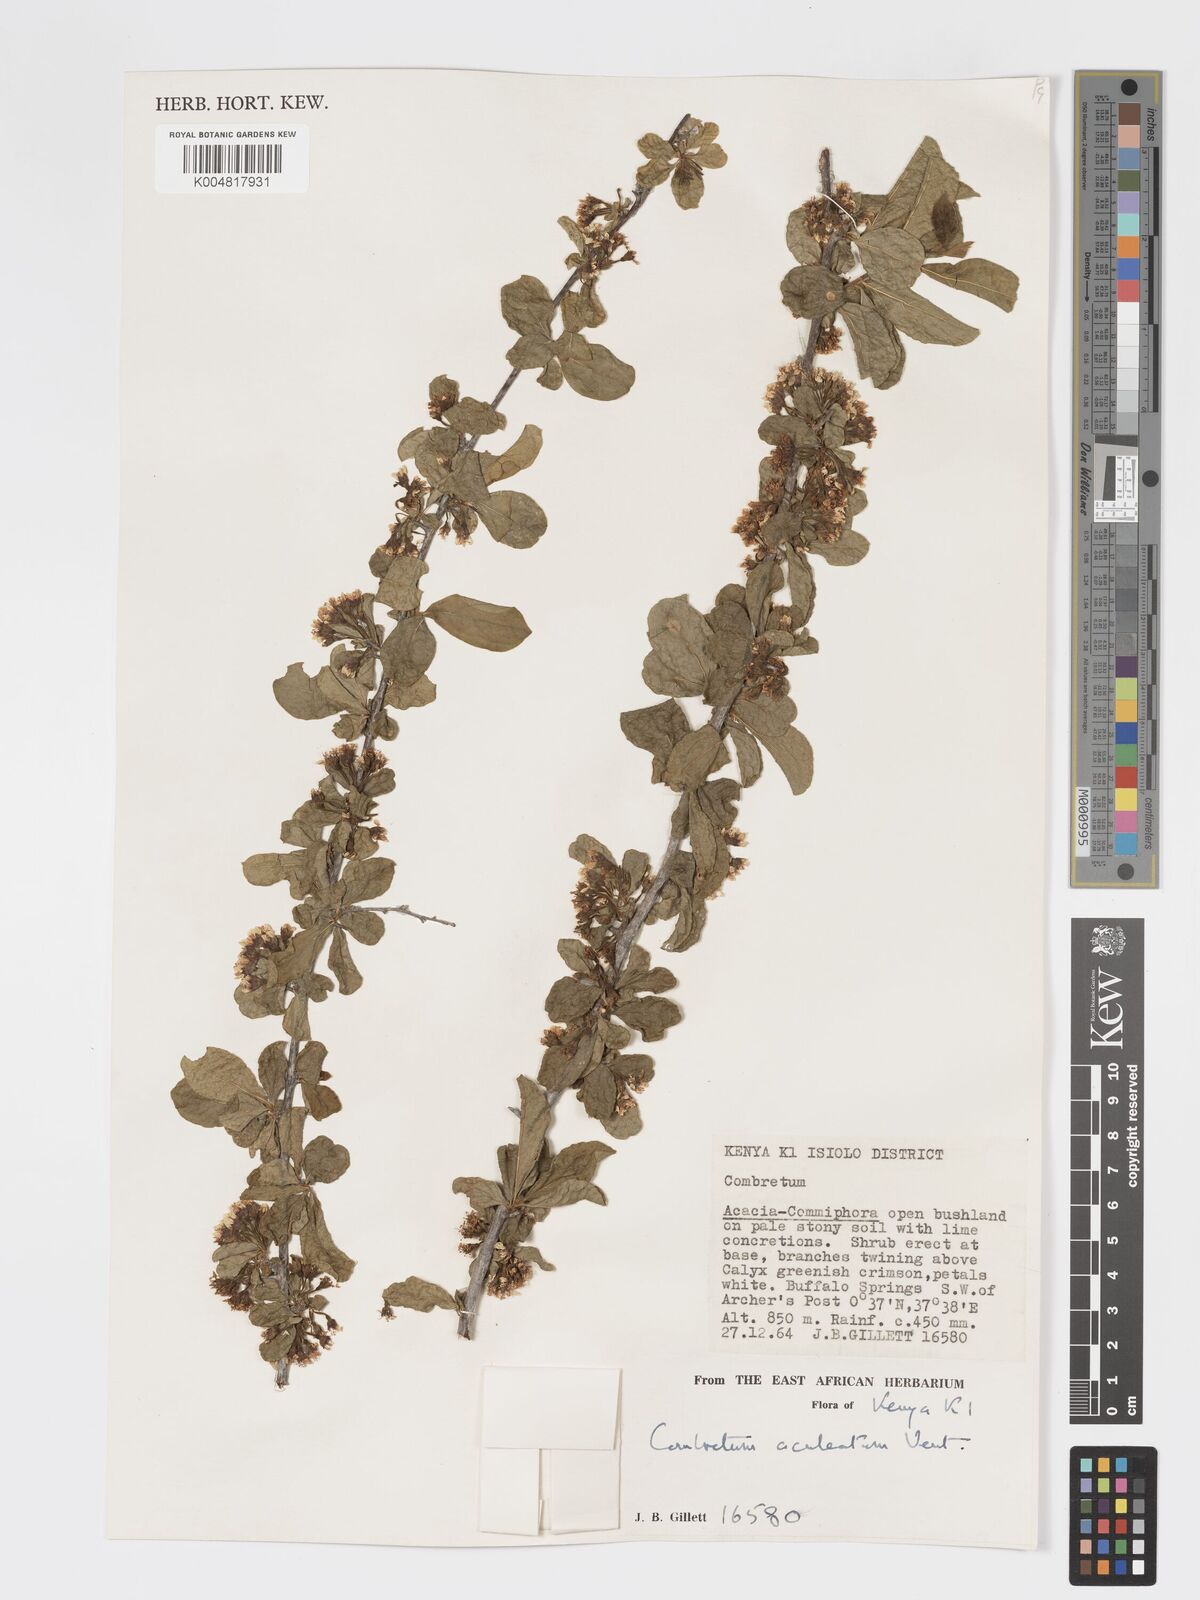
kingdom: Plantae
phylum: Tracheophyta
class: Magnoliopsida
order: Myrtales
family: Combretaceae
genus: Combretum
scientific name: Combretum aculeatum
